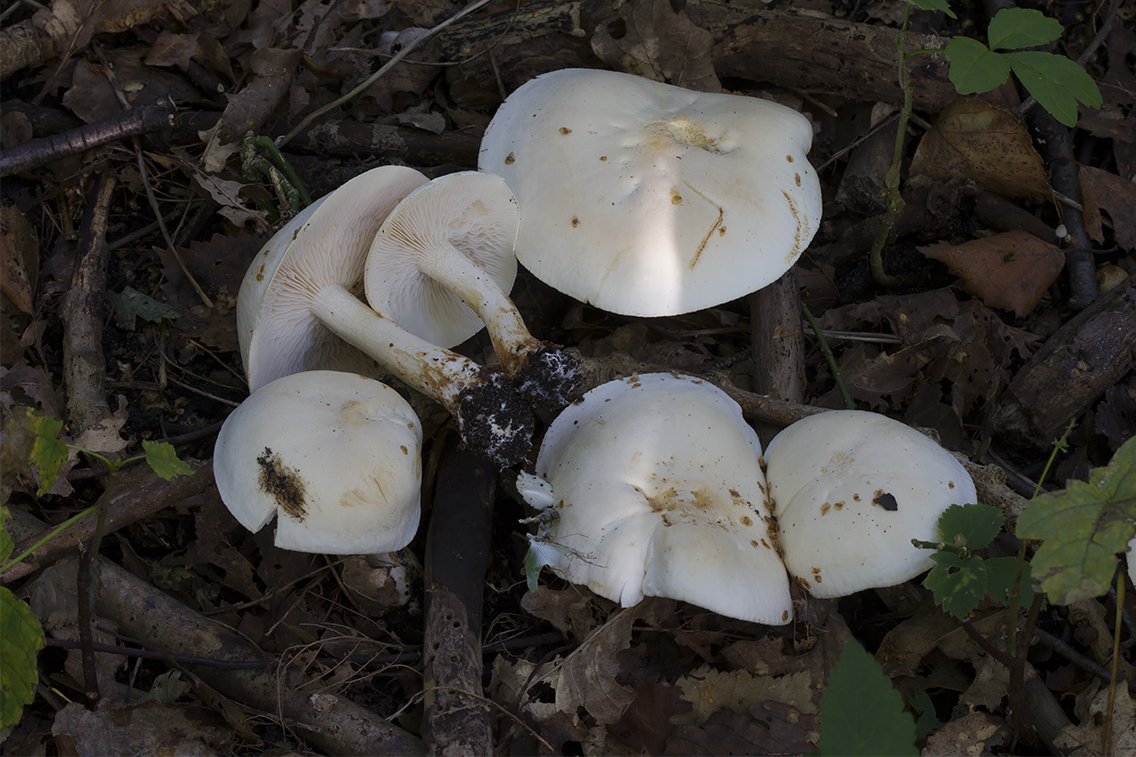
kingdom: Fungi
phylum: Basidiomycota
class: Agaricomycetes
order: Agaricales
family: Tricholomataceae
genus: Tricholoma
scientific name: Tricholoma stiparophyllum
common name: hvid ridderhat
